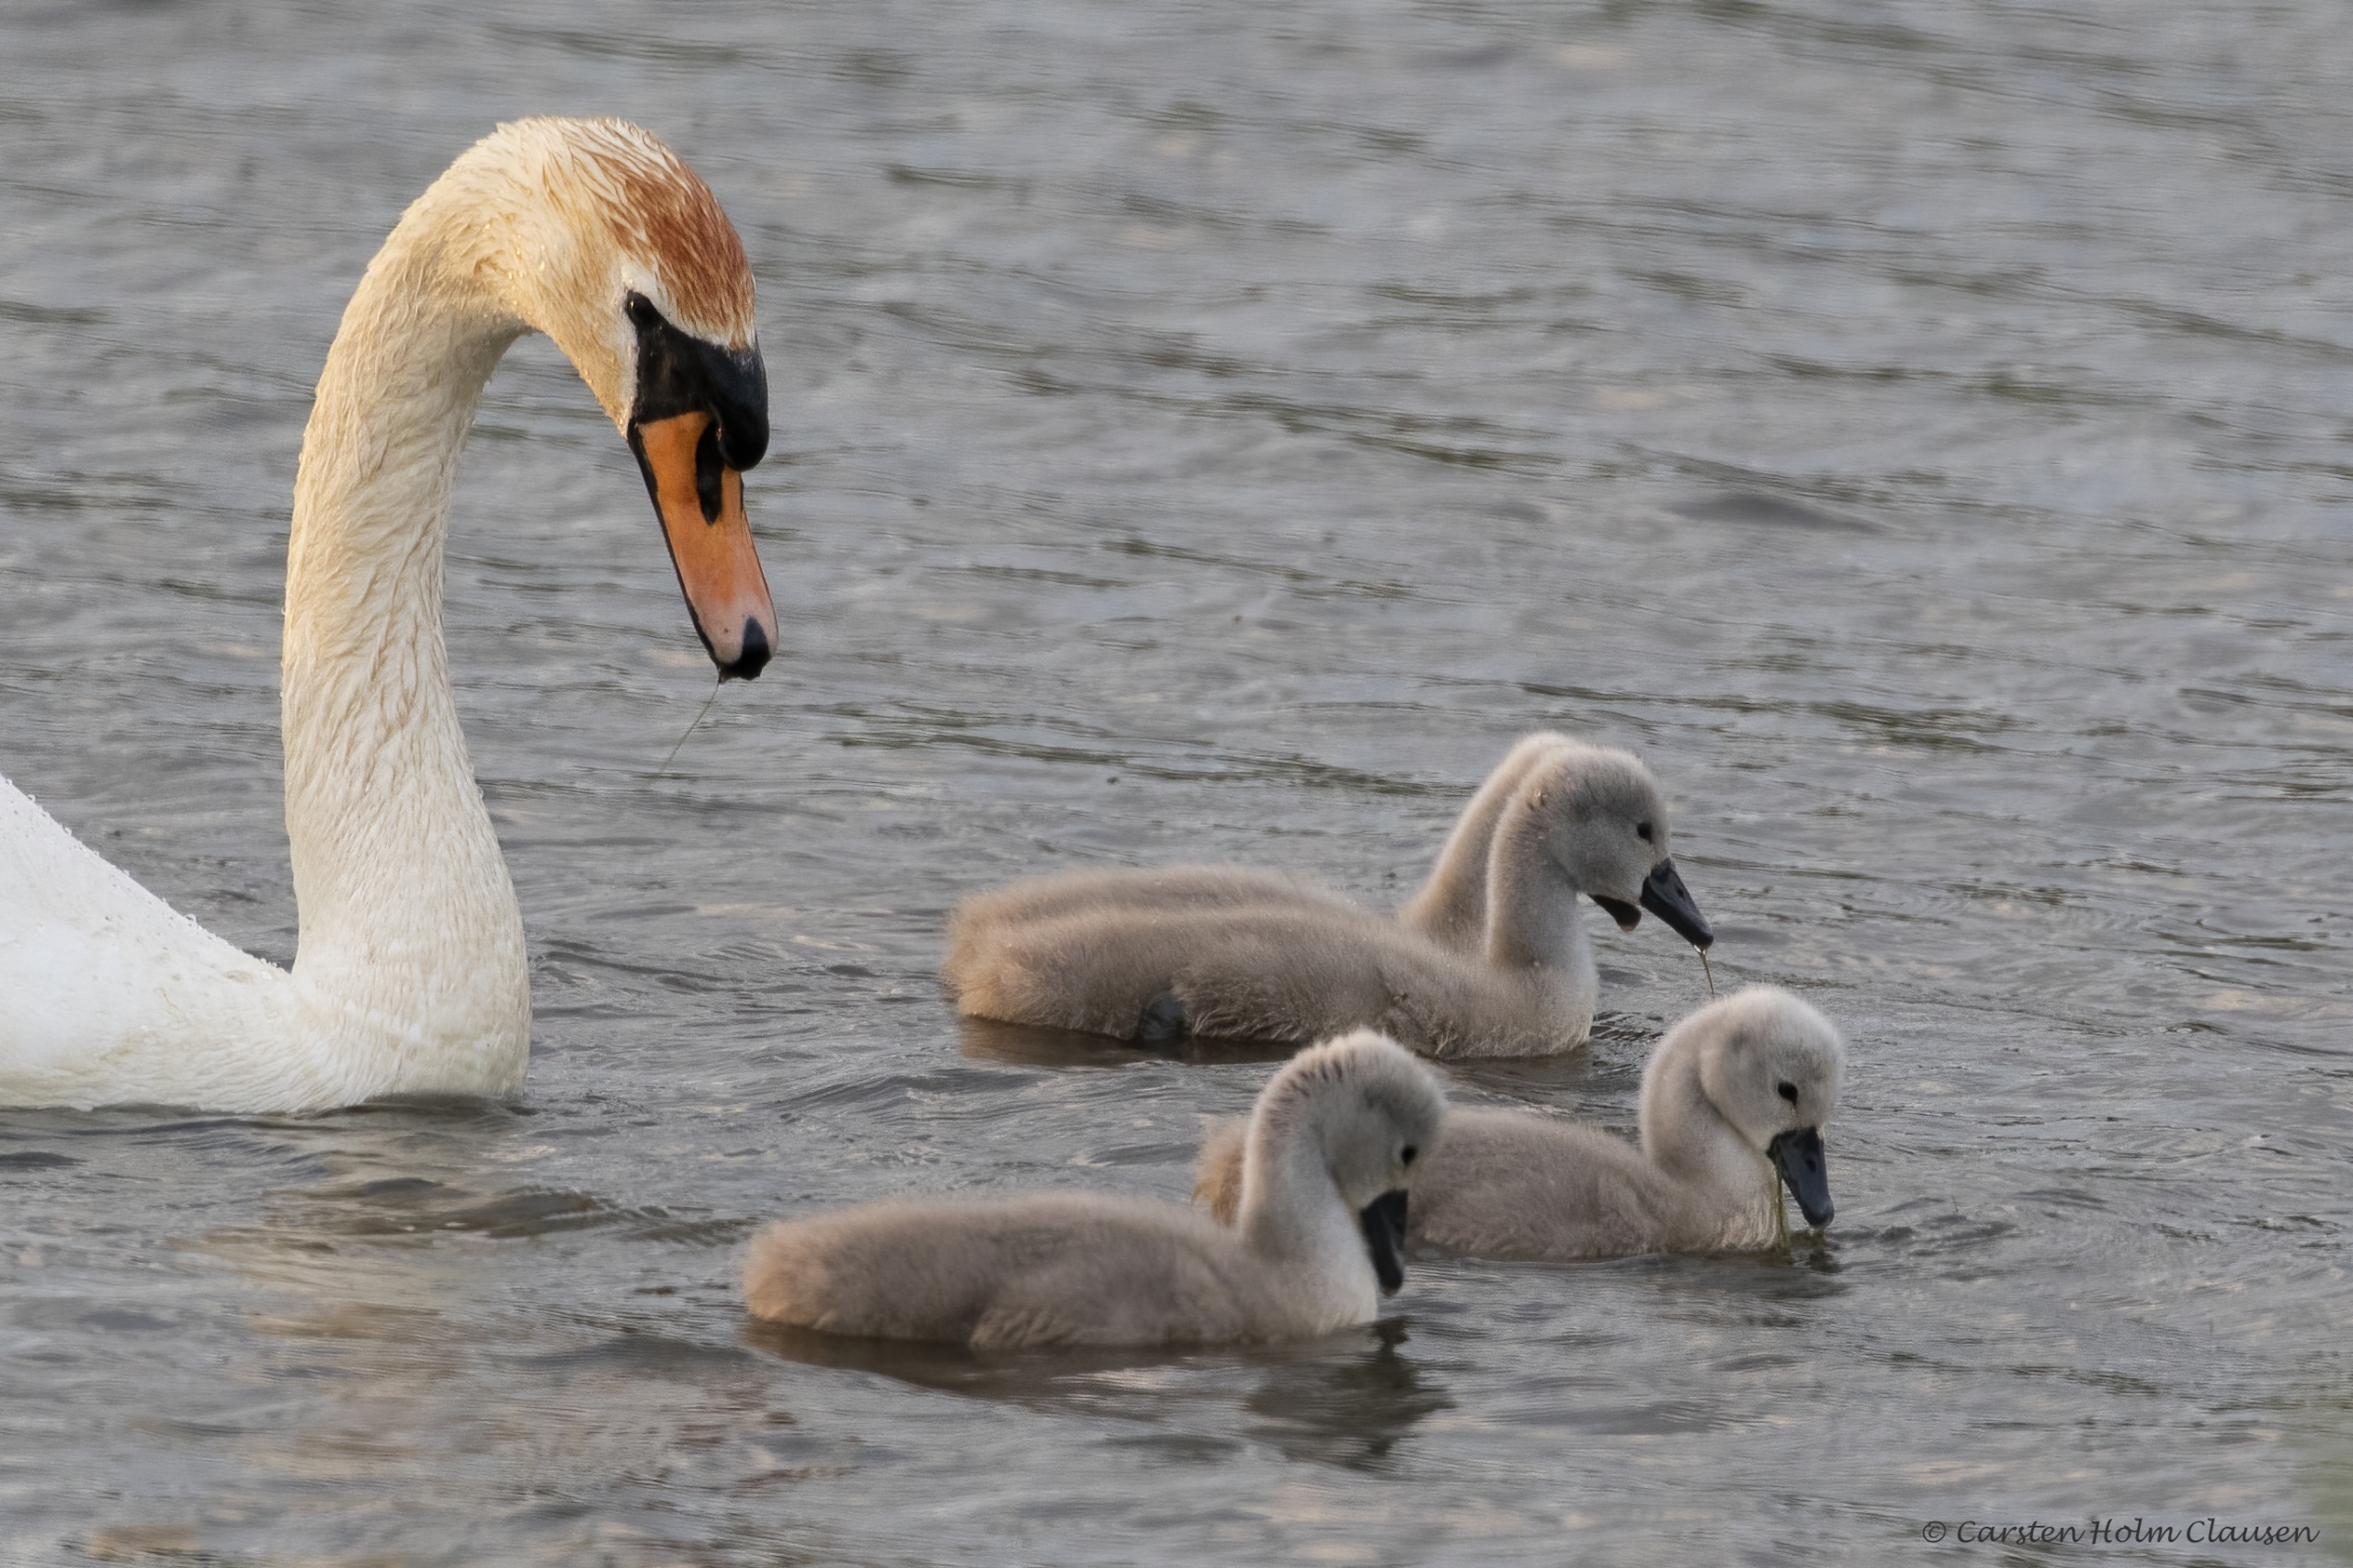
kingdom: Animalia
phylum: Chordata
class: Aves
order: Anseriformes
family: Anatidae
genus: Cygnus
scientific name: Cygnus olor
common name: Knopsvane
